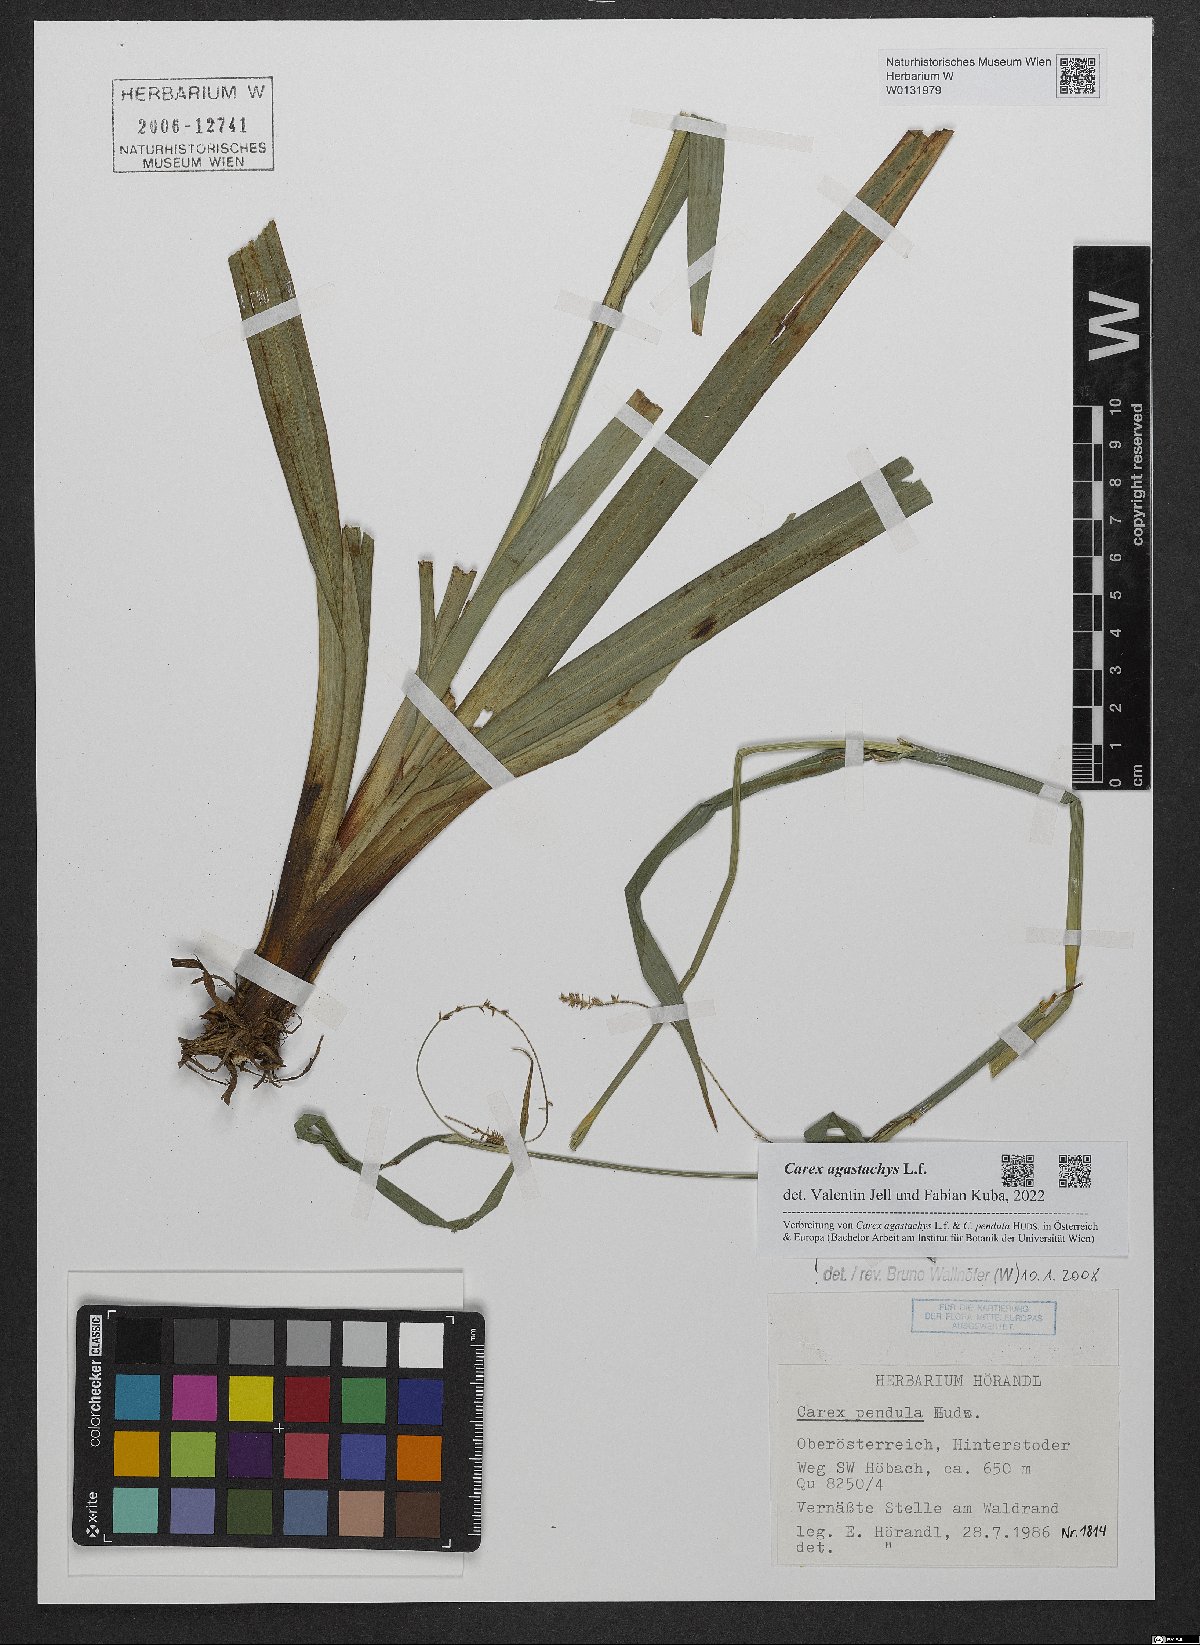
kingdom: Plantae
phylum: Tracheophyta
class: Liliopsida
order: Poales
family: Cyperaceae
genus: Carex
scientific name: Carex agastachys
